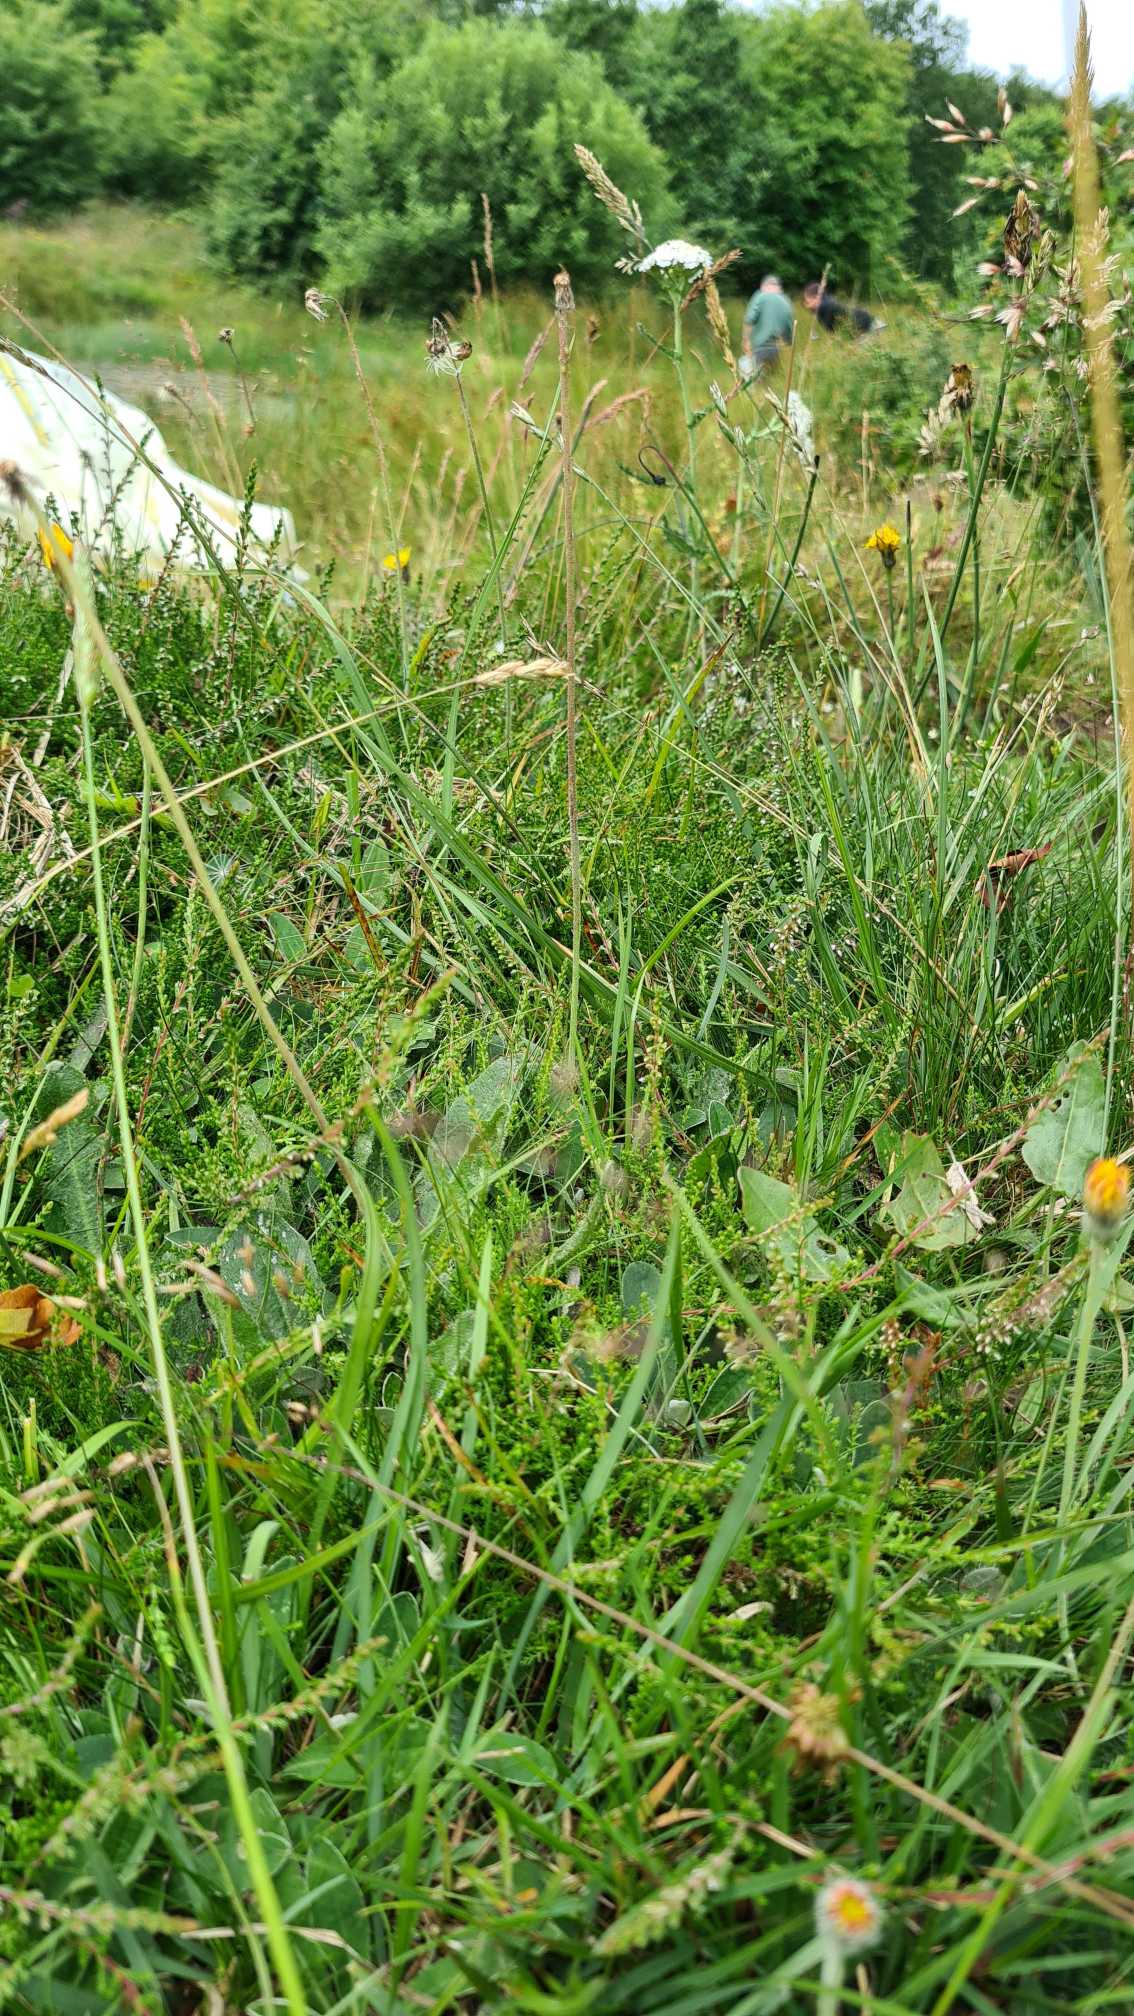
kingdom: Plantae
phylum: Tracheophyta
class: Magnoliopsida
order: Ericales
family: Ericaceae
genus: Calluna
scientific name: Calluna vulgaris
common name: Hedelyng
